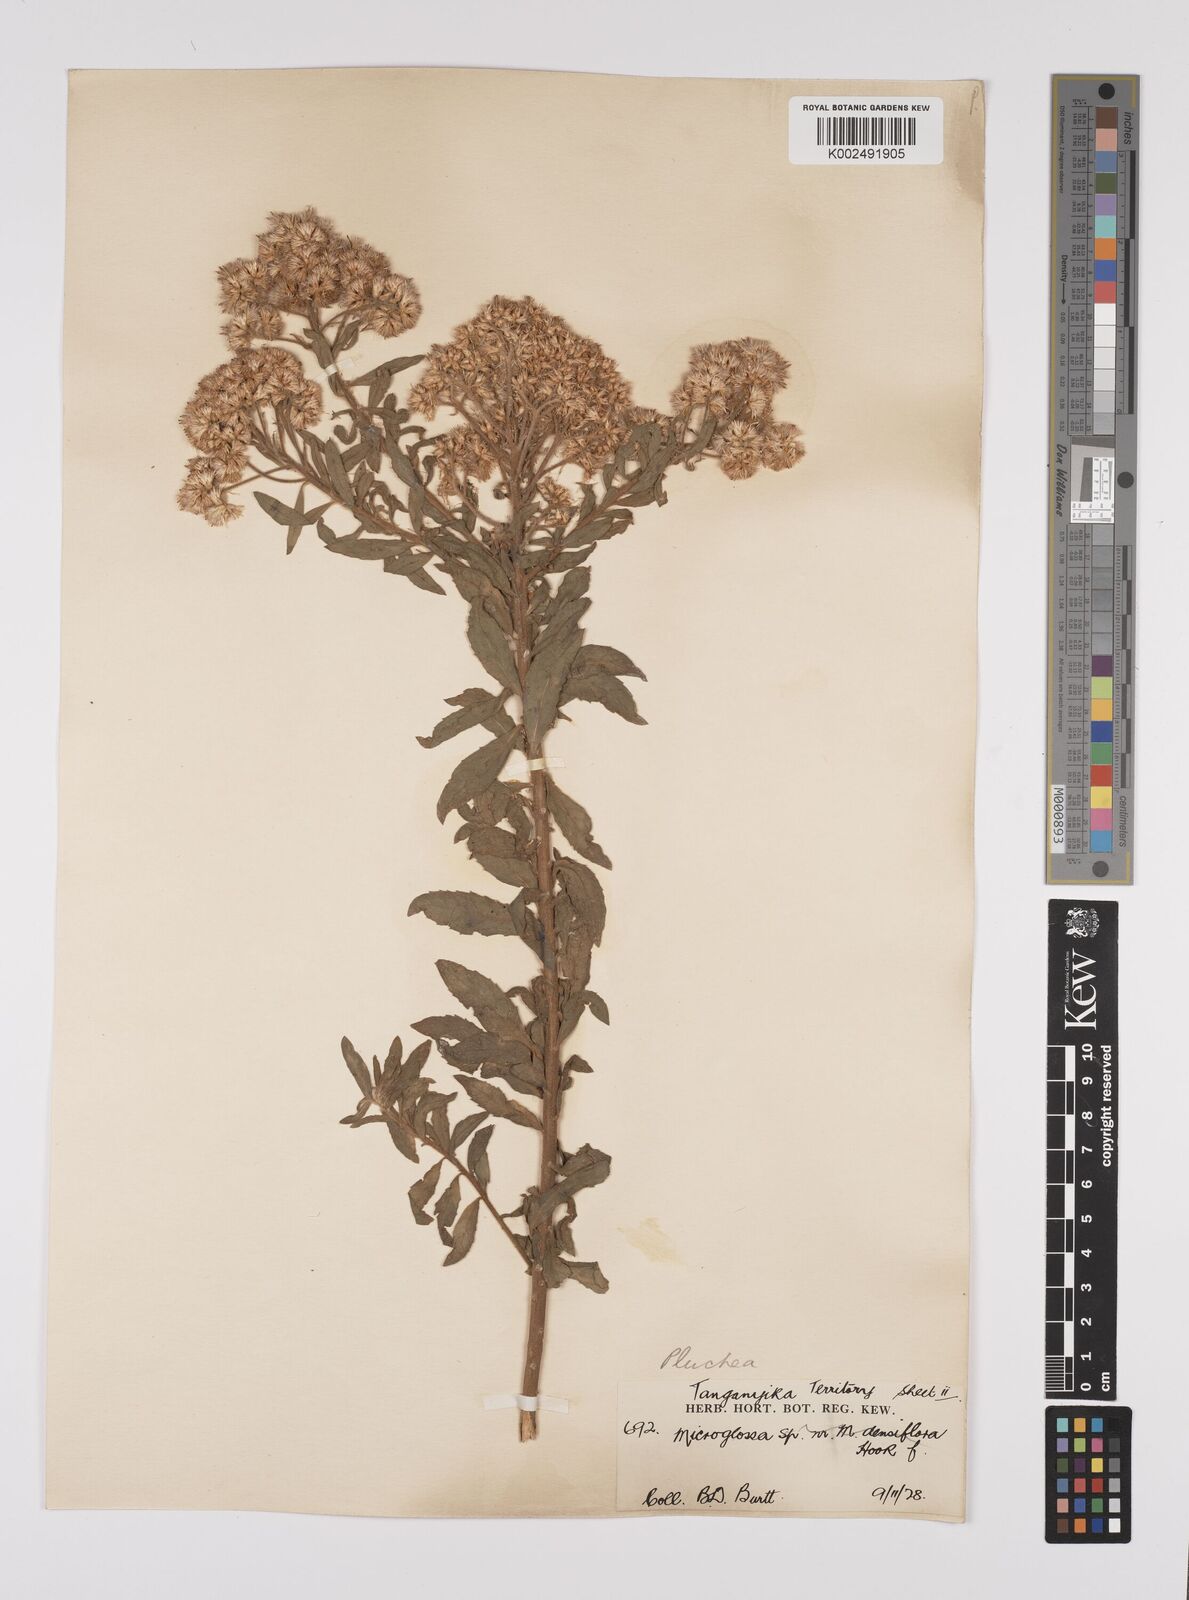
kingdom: Plantae
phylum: Tracheophyta
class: Magnoliopsida
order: Asterales
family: Asteraceae
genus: Pluchea
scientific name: Pluchea dioscoridis
